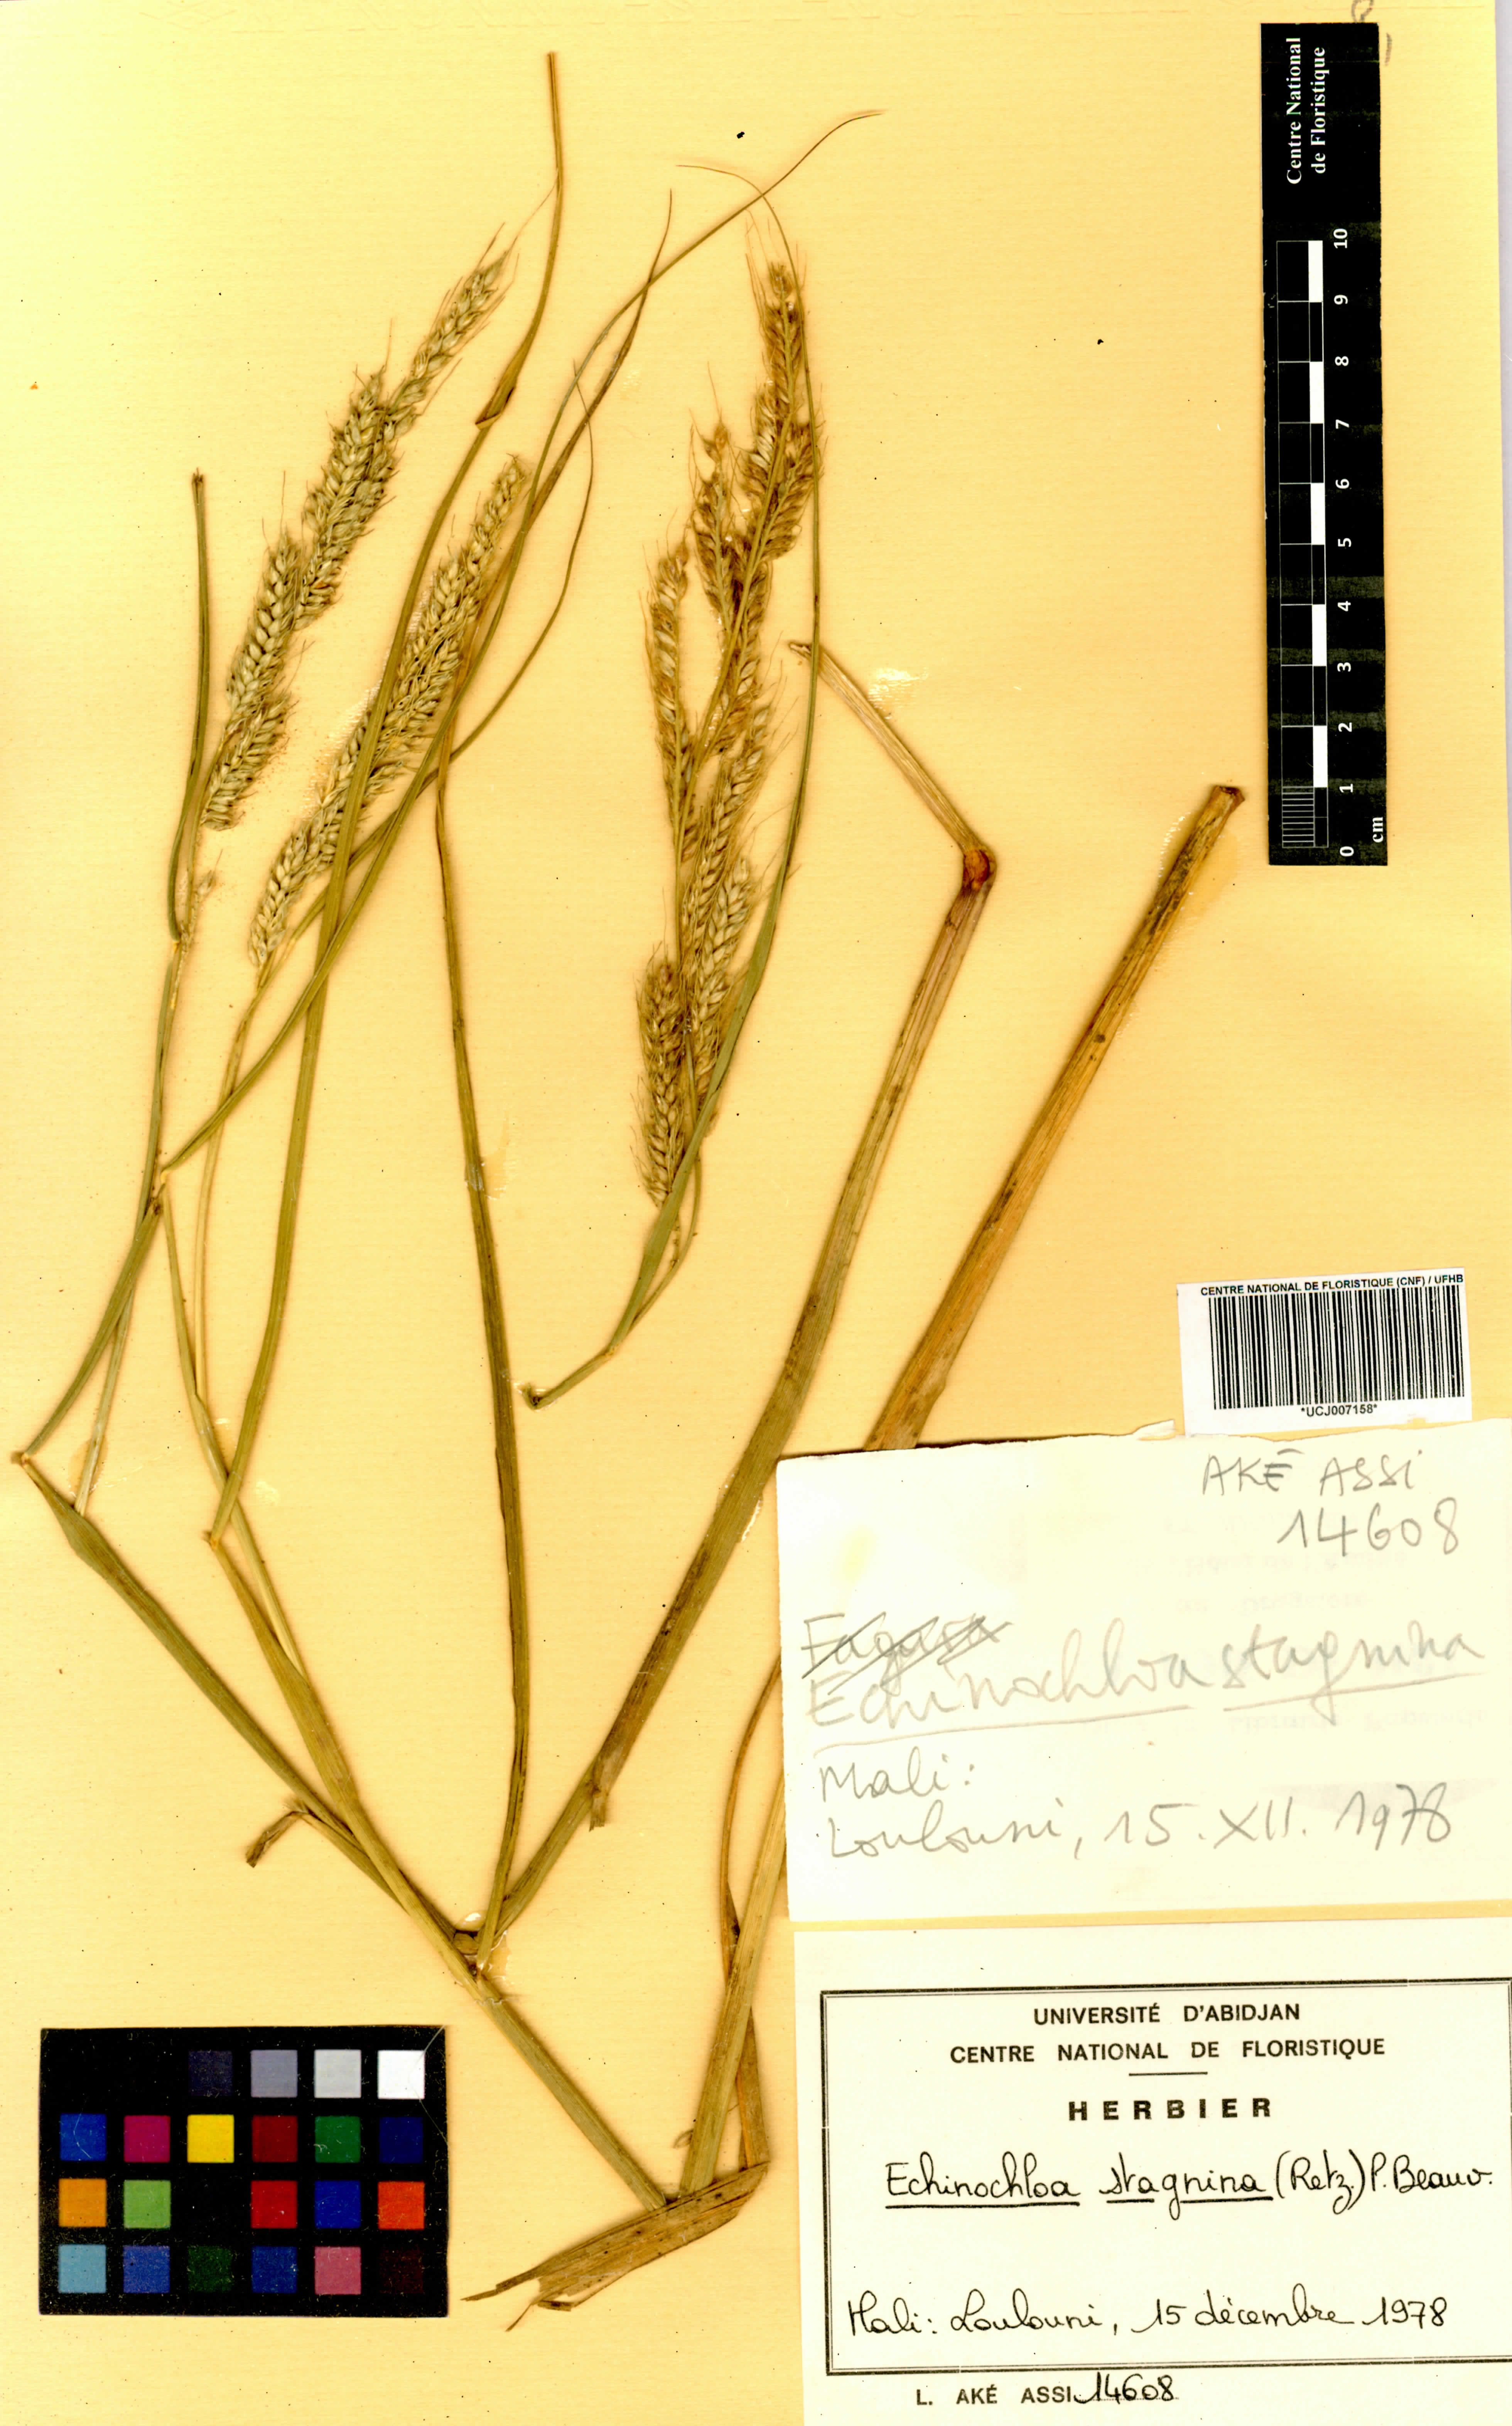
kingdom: Plantae
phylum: Tracheophyta
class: Liliopsida
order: Poales
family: Poaceae
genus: Echinochloa
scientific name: Echinochloa stagnina
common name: Burgu grass
